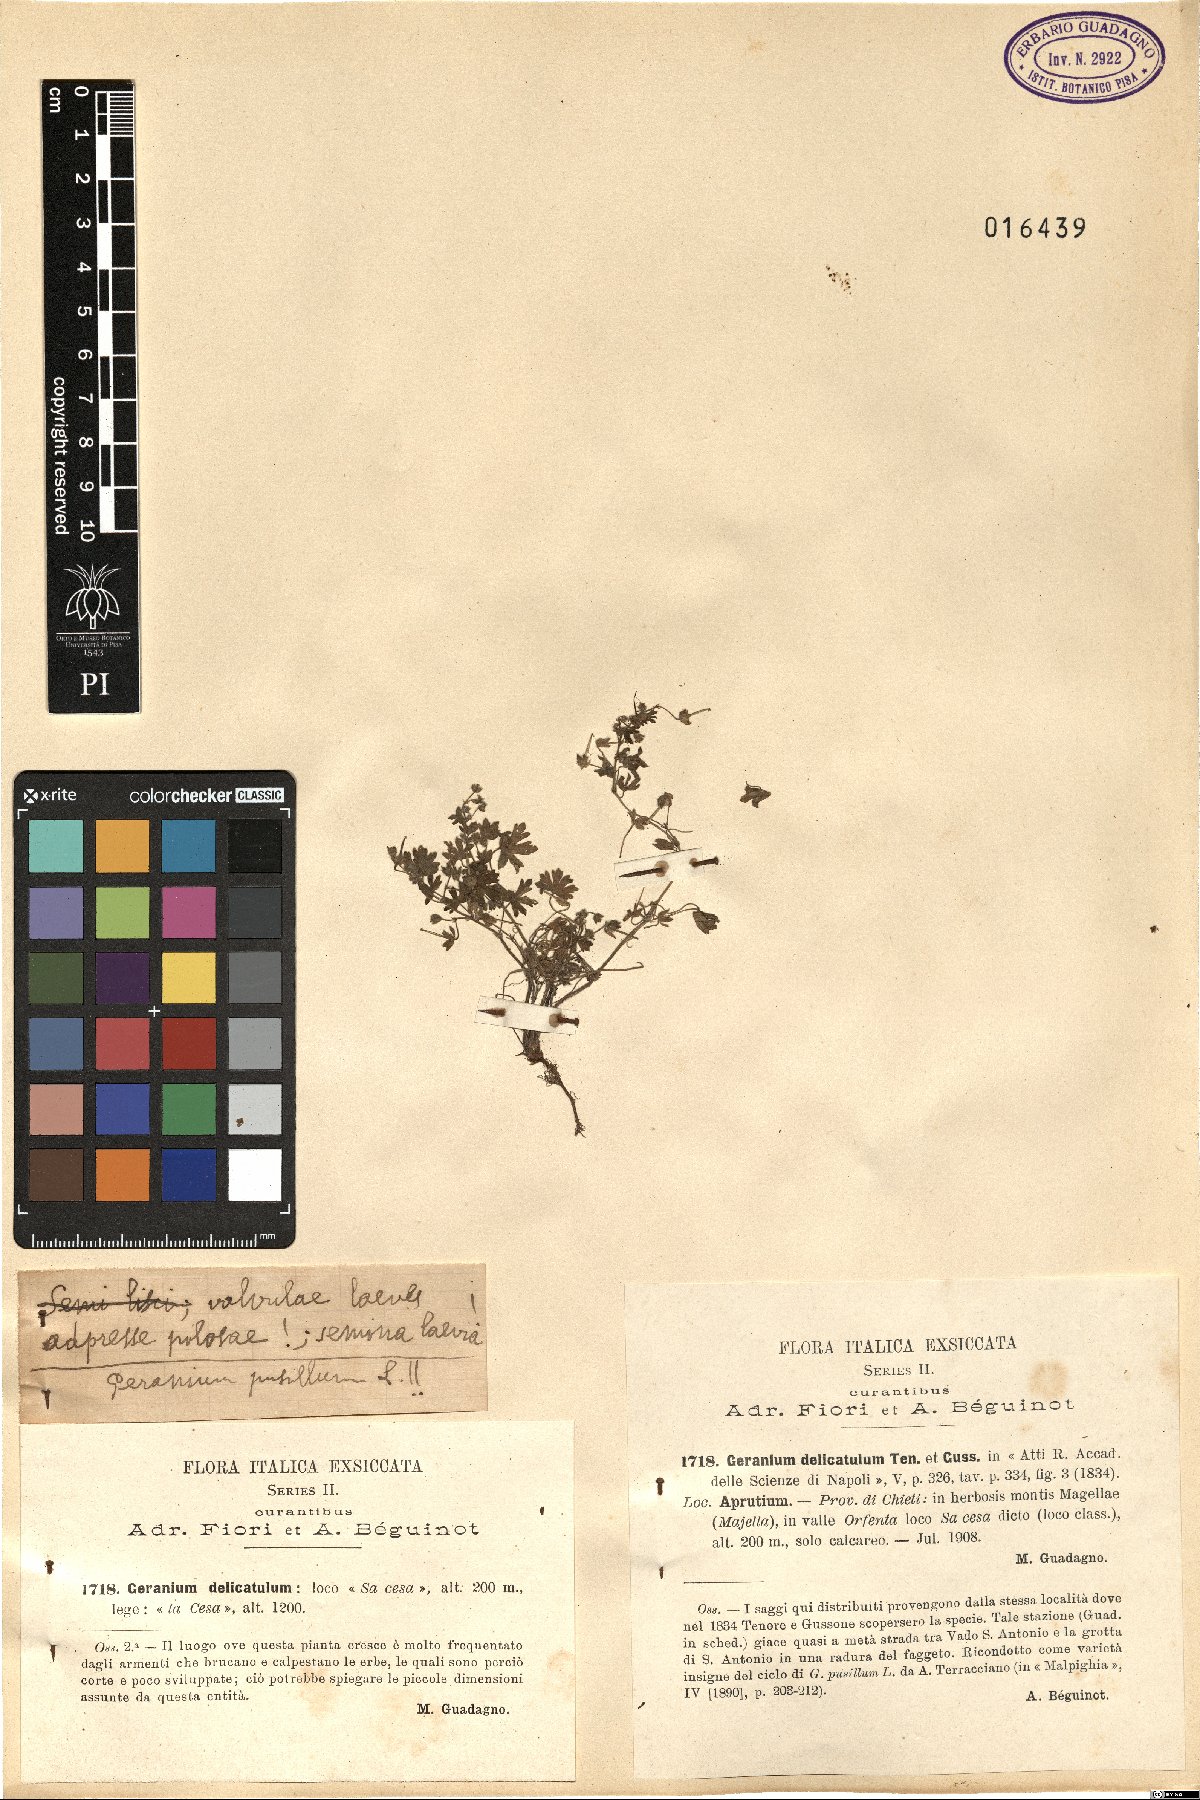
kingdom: Plantae
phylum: Tracheophyta
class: Magnoliopsida
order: Geraniales
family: Geraniaceae
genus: Geranium
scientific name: Geranium pusillum
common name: Small geranium
